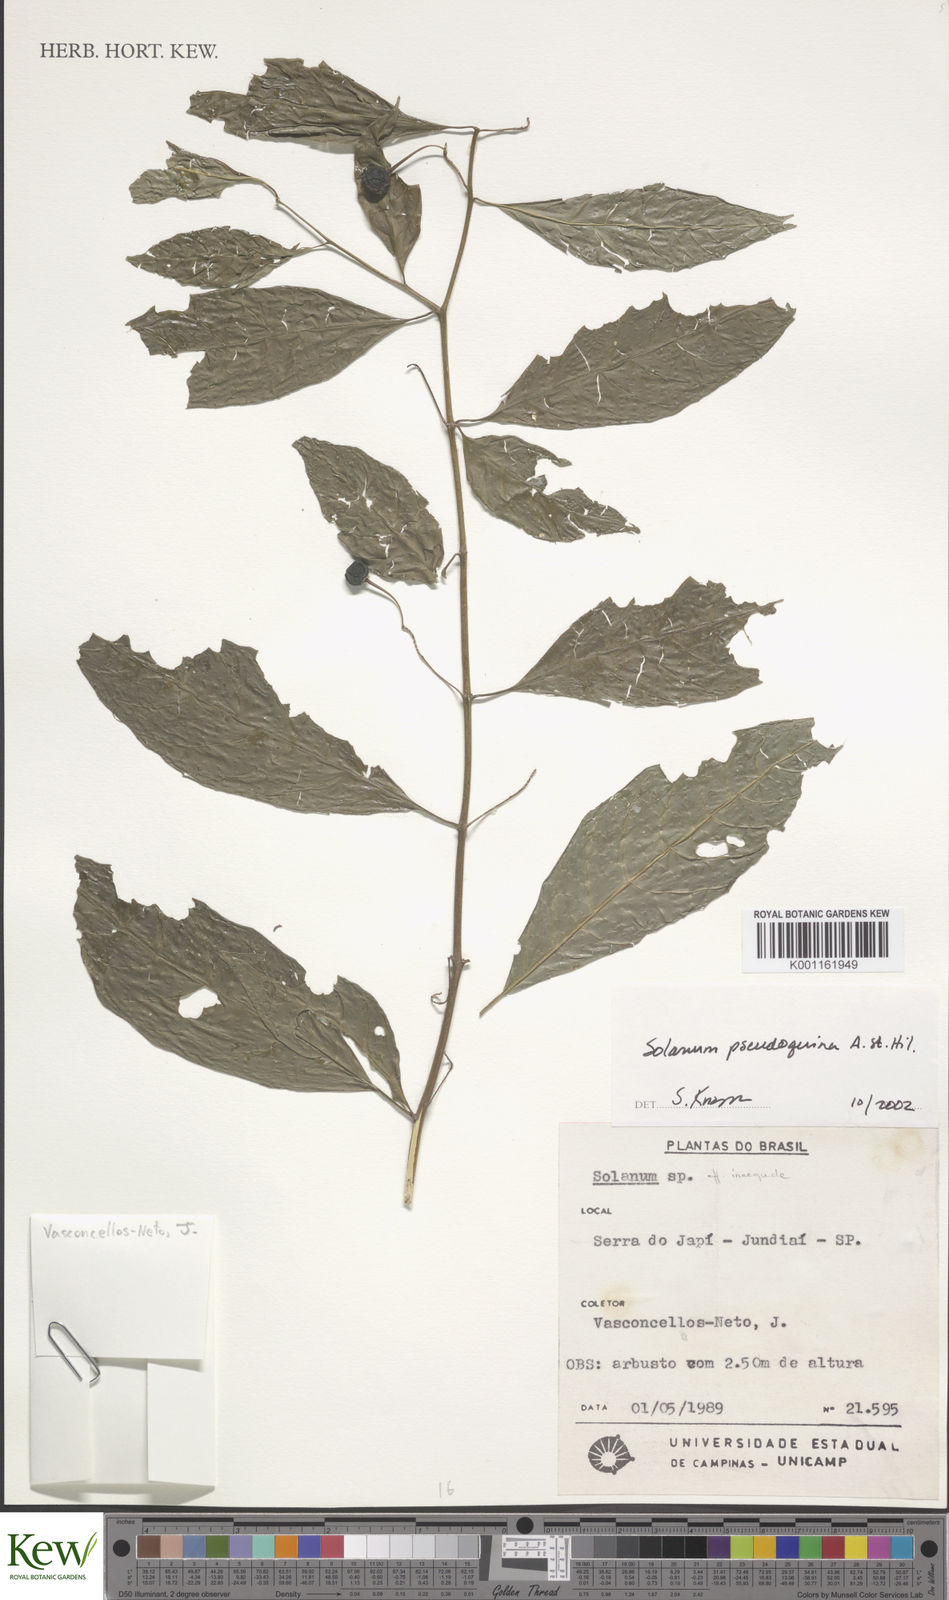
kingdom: Plantae
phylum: Tracheophyta
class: Magnoliopsida
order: Solanales
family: Solanaceae
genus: Solanum
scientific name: Solanum pseudoquina
